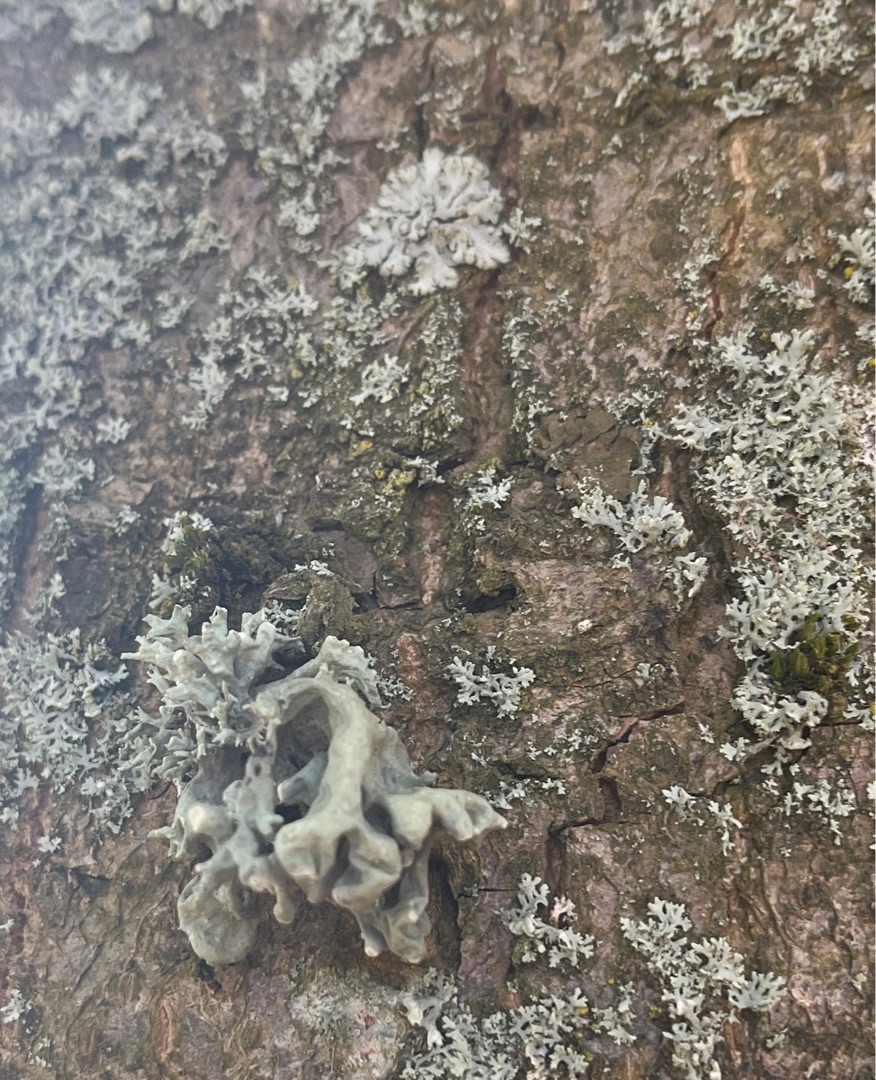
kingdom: Fungi
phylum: Ascomycota
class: Lecanoromycetes
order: Lecanorales
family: Ramalinaceae
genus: Ramalina
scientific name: Ramalina fastigiata
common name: Tue-grenlav
